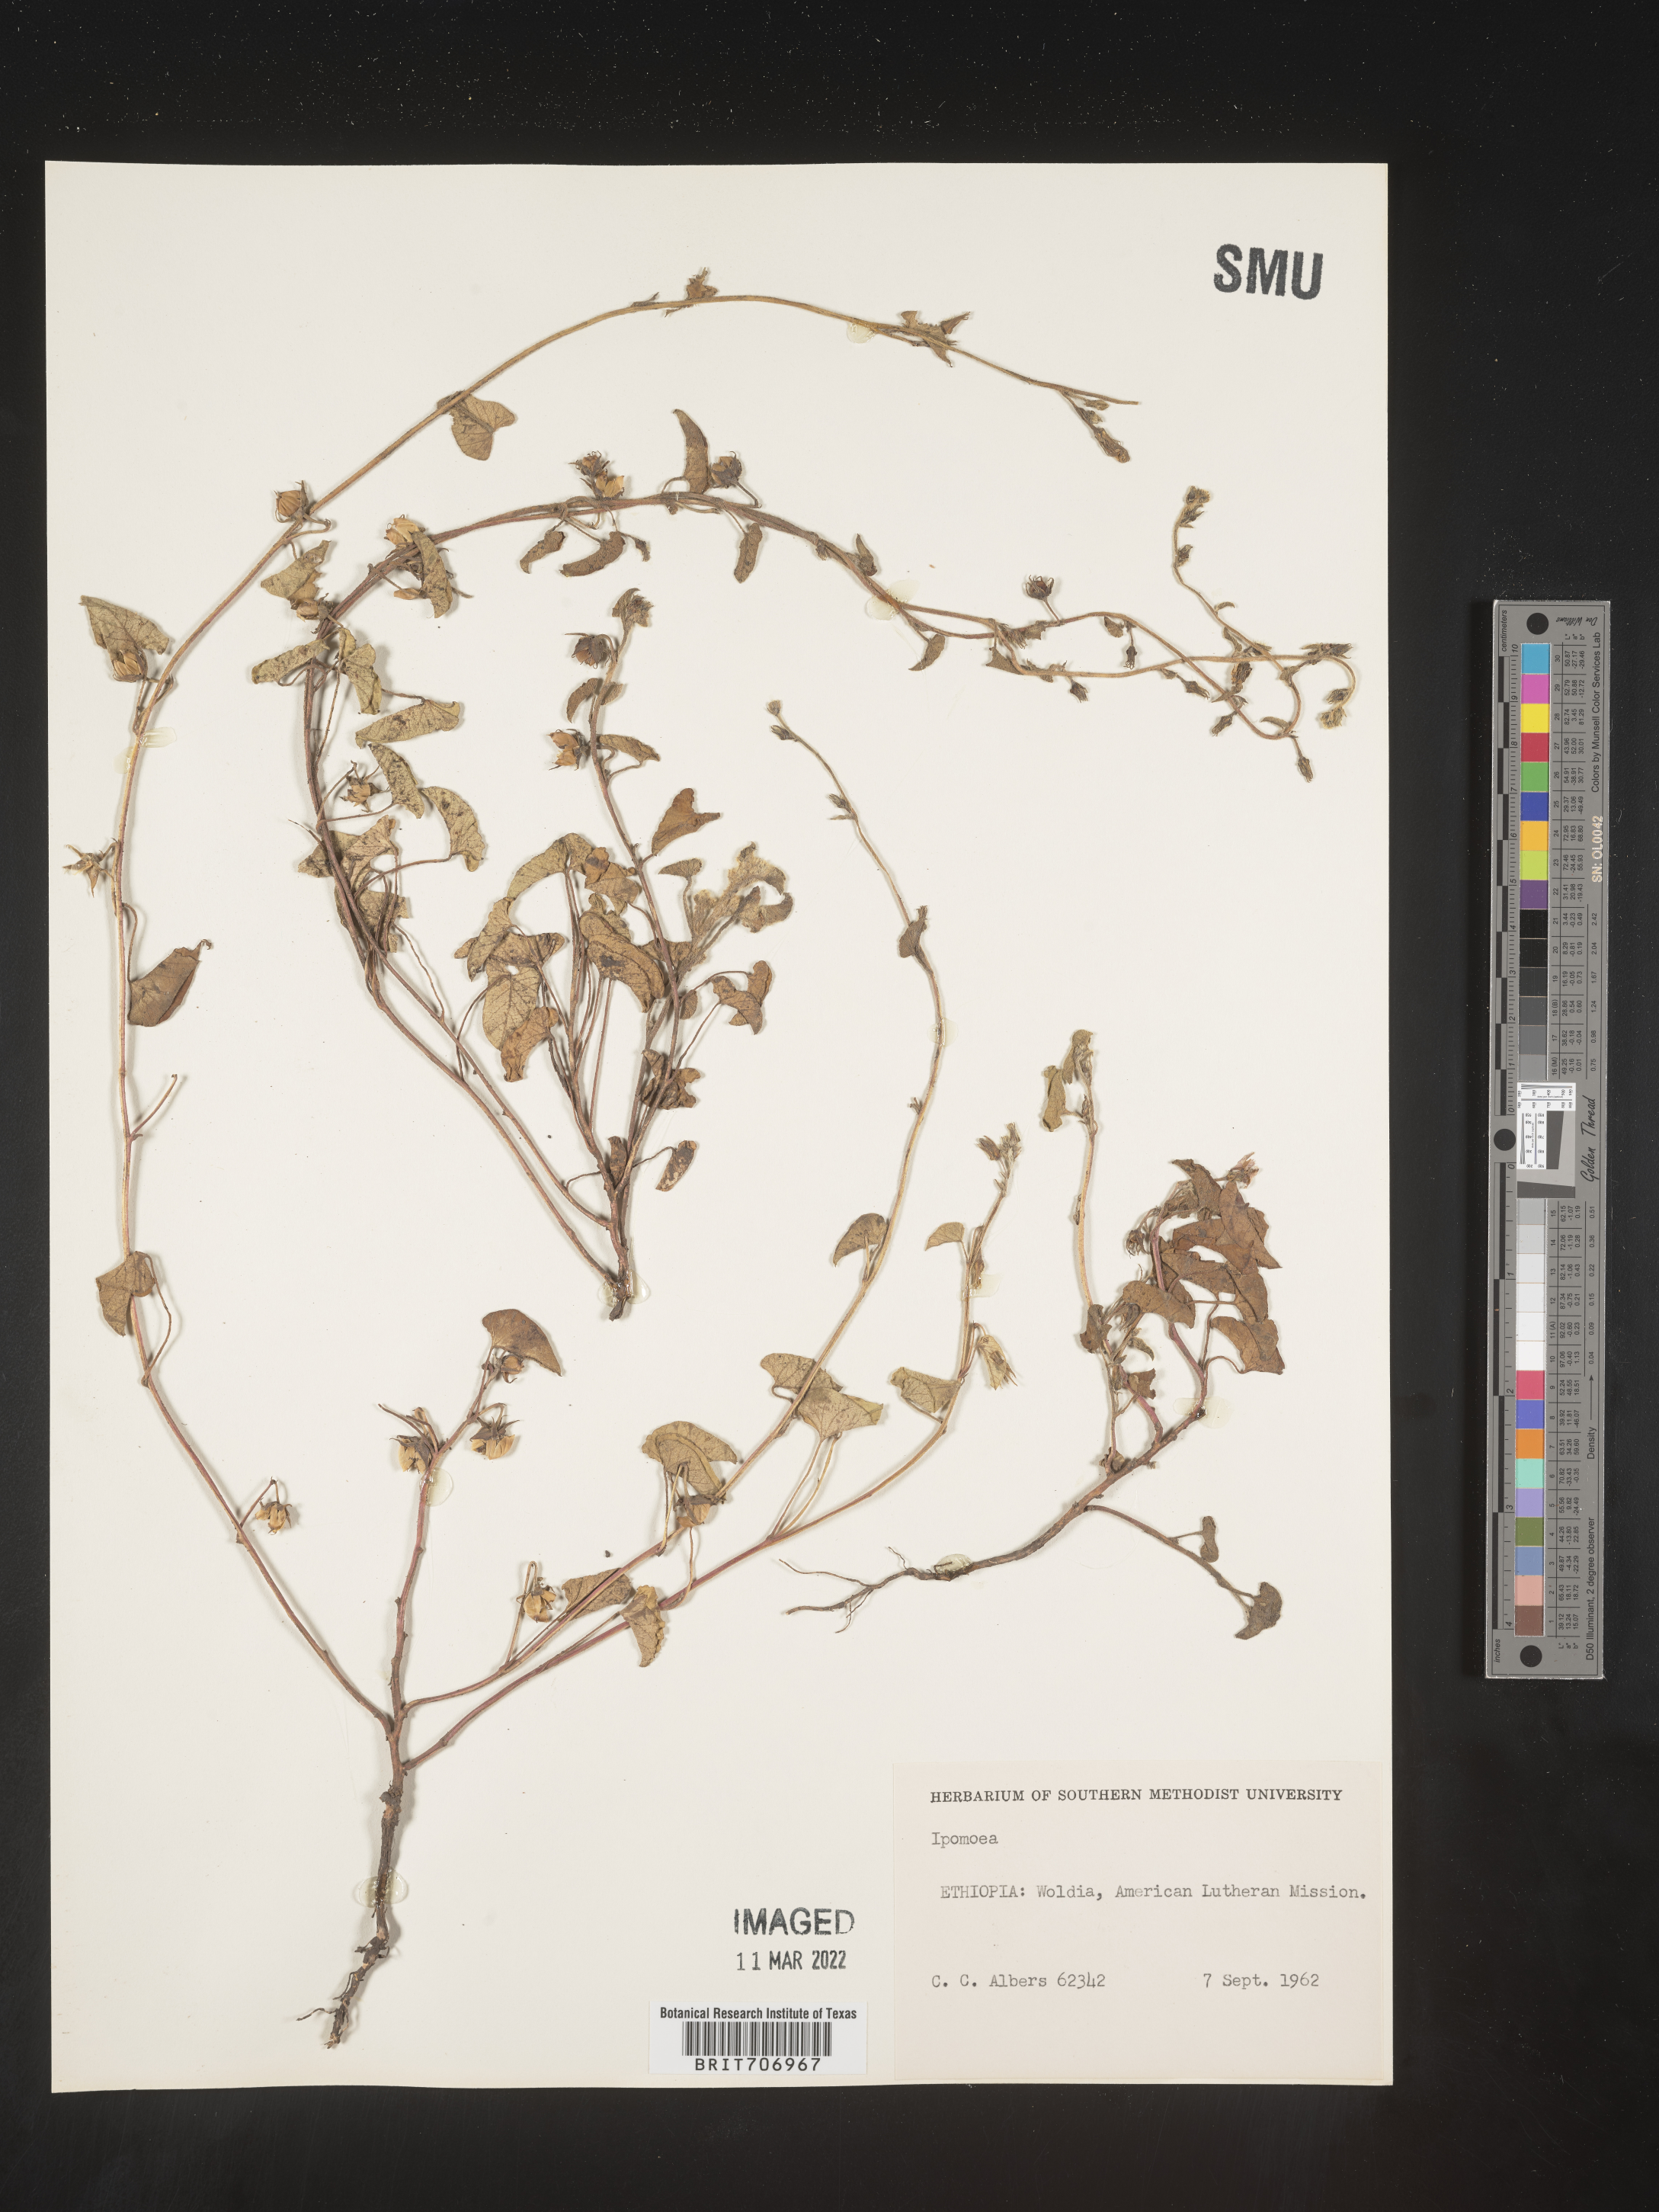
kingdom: Plantae
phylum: Tracheophyta
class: Magnoliopsida
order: Solanales
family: Convolvulaceae
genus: Ipomoea
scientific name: Ipomoea
